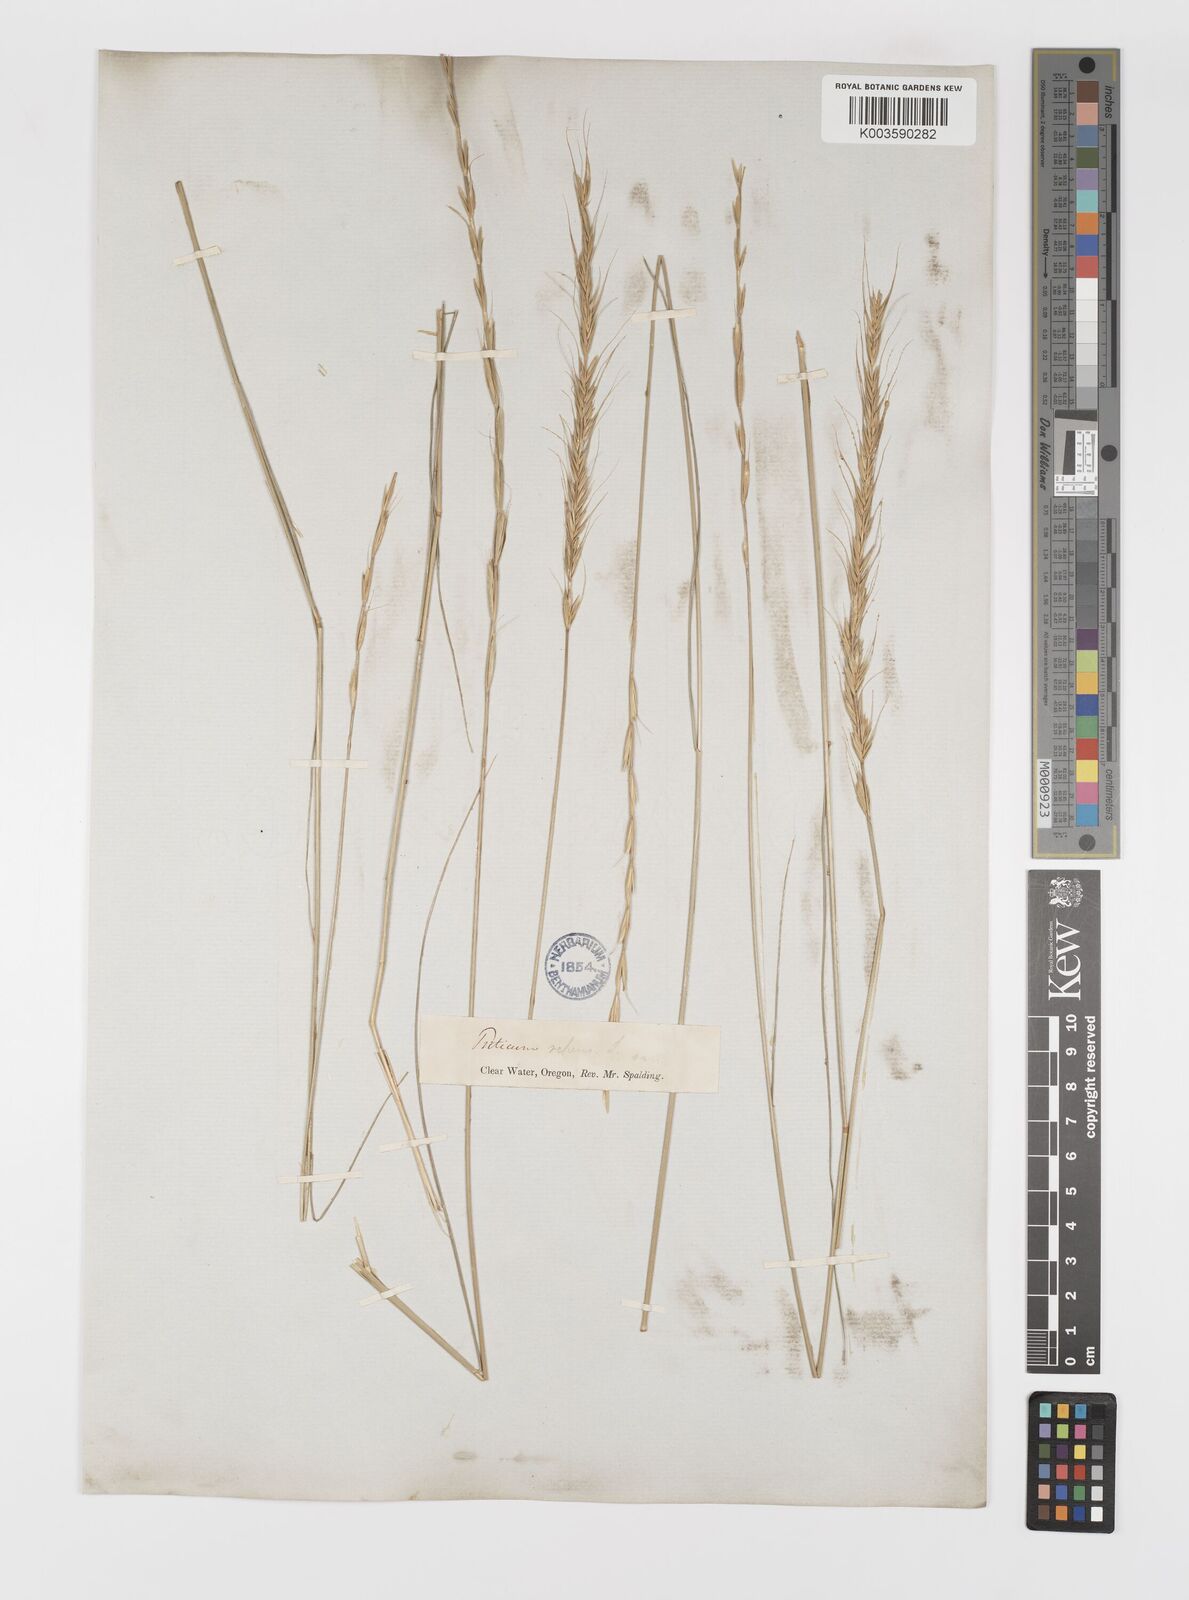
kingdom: Plantae
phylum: Tracheophyta
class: Liliopsida
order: Poales
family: Poaceae
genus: Elymus
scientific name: Elymus
